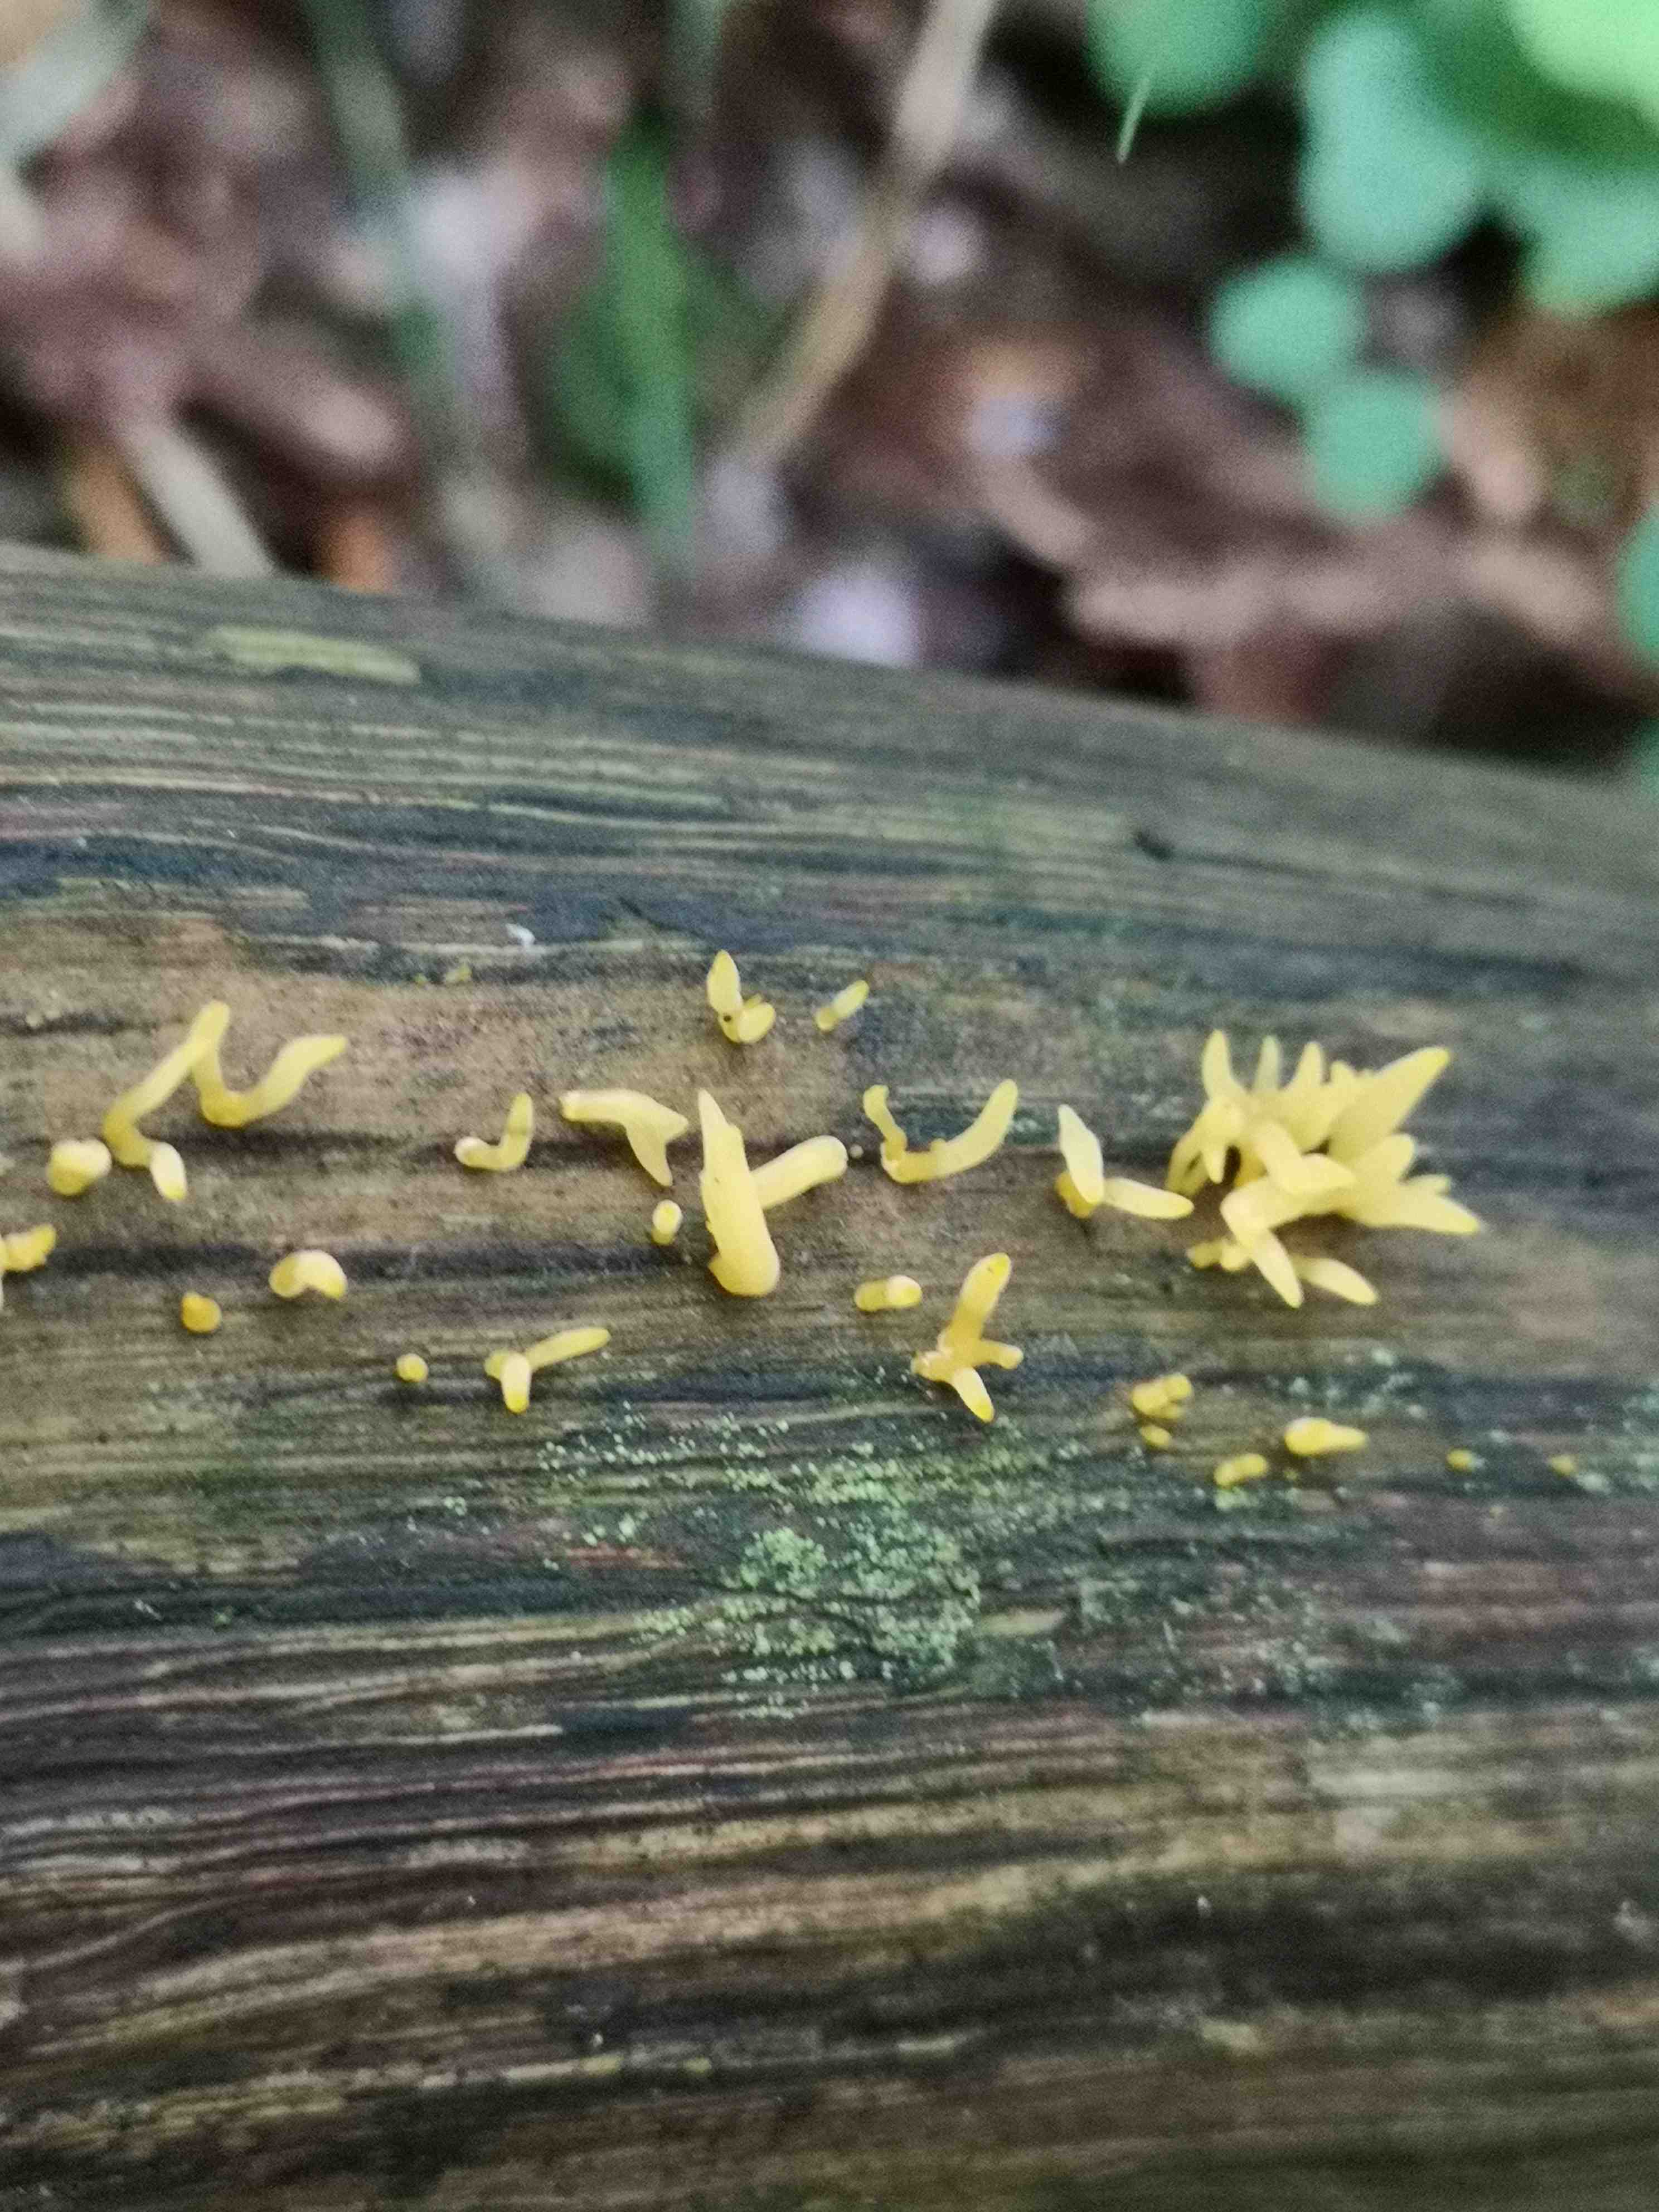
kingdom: Fungi
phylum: Basidiomycota
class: Dacrymycetes
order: Dacrymycetales
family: Dacrymycetaceae
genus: Calocera
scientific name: Calocera cornea
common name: liden guldgaffel
